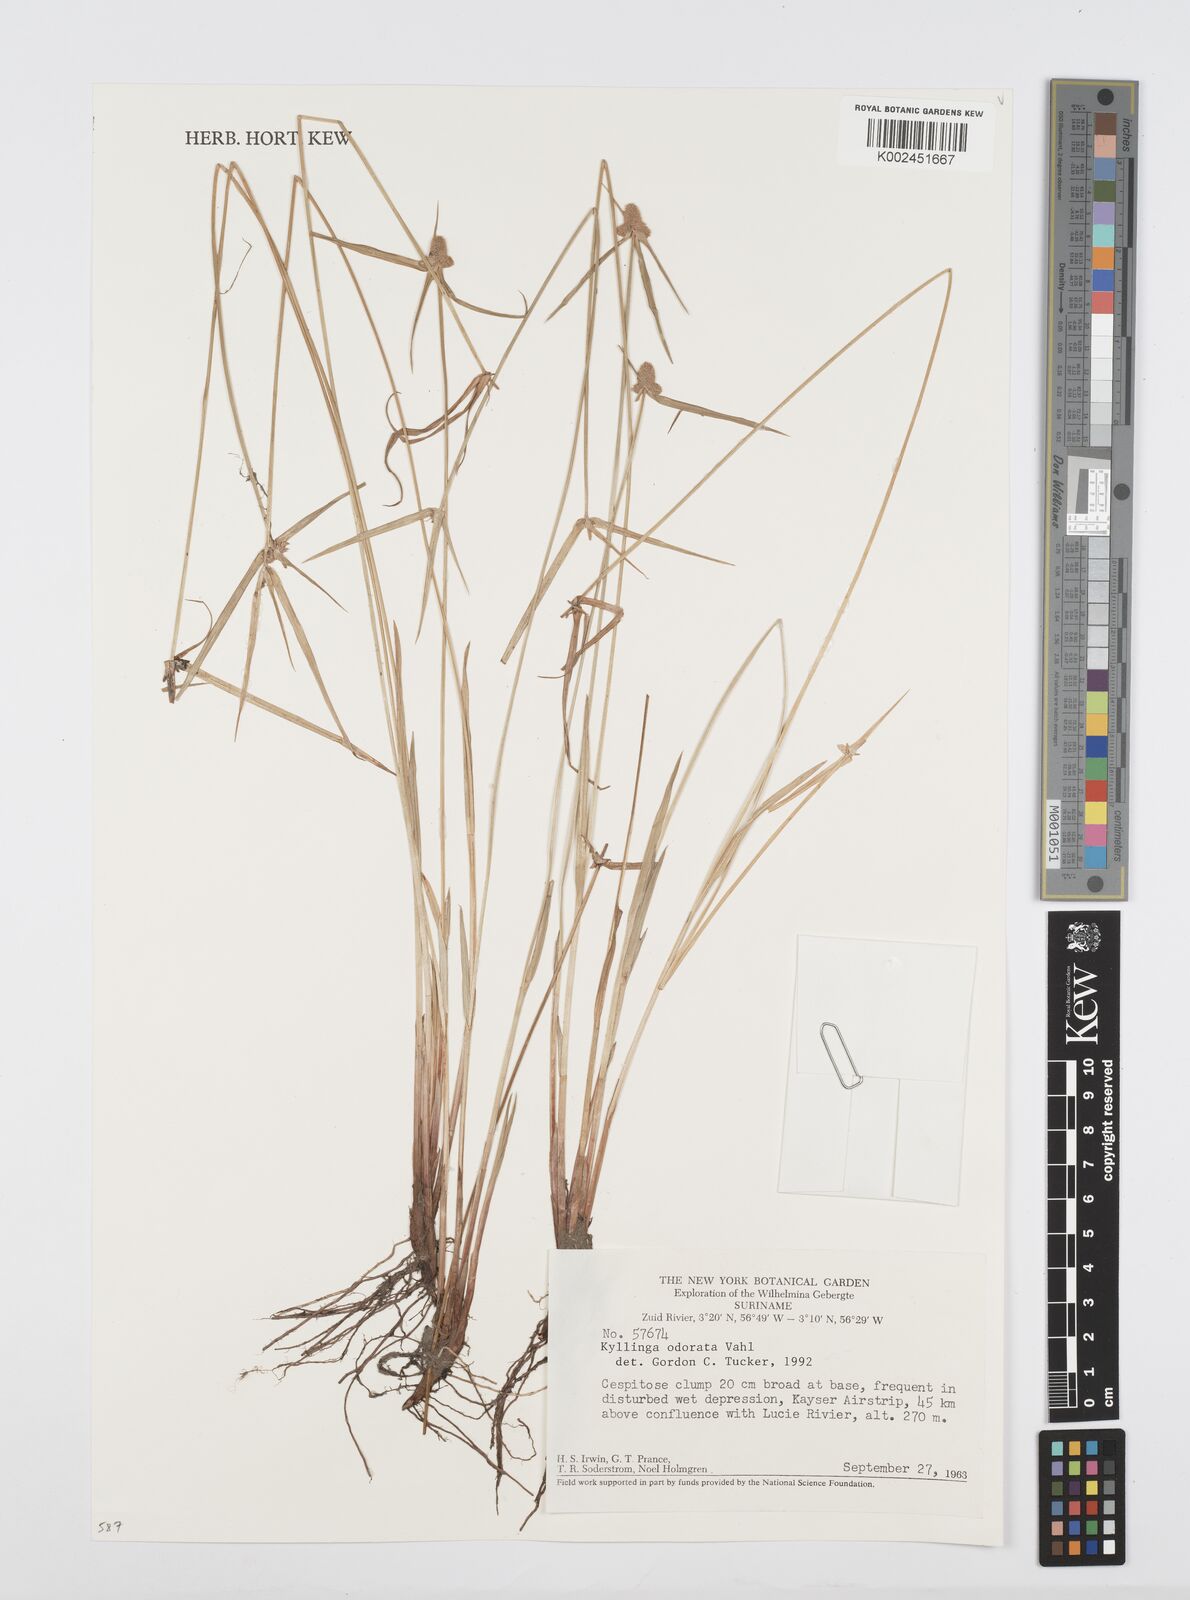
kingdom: Plantae
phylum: Tracheophyta
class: Liliopsida
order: Poales
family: Cyperaceae
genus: Cyperus
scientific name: Cyperus
